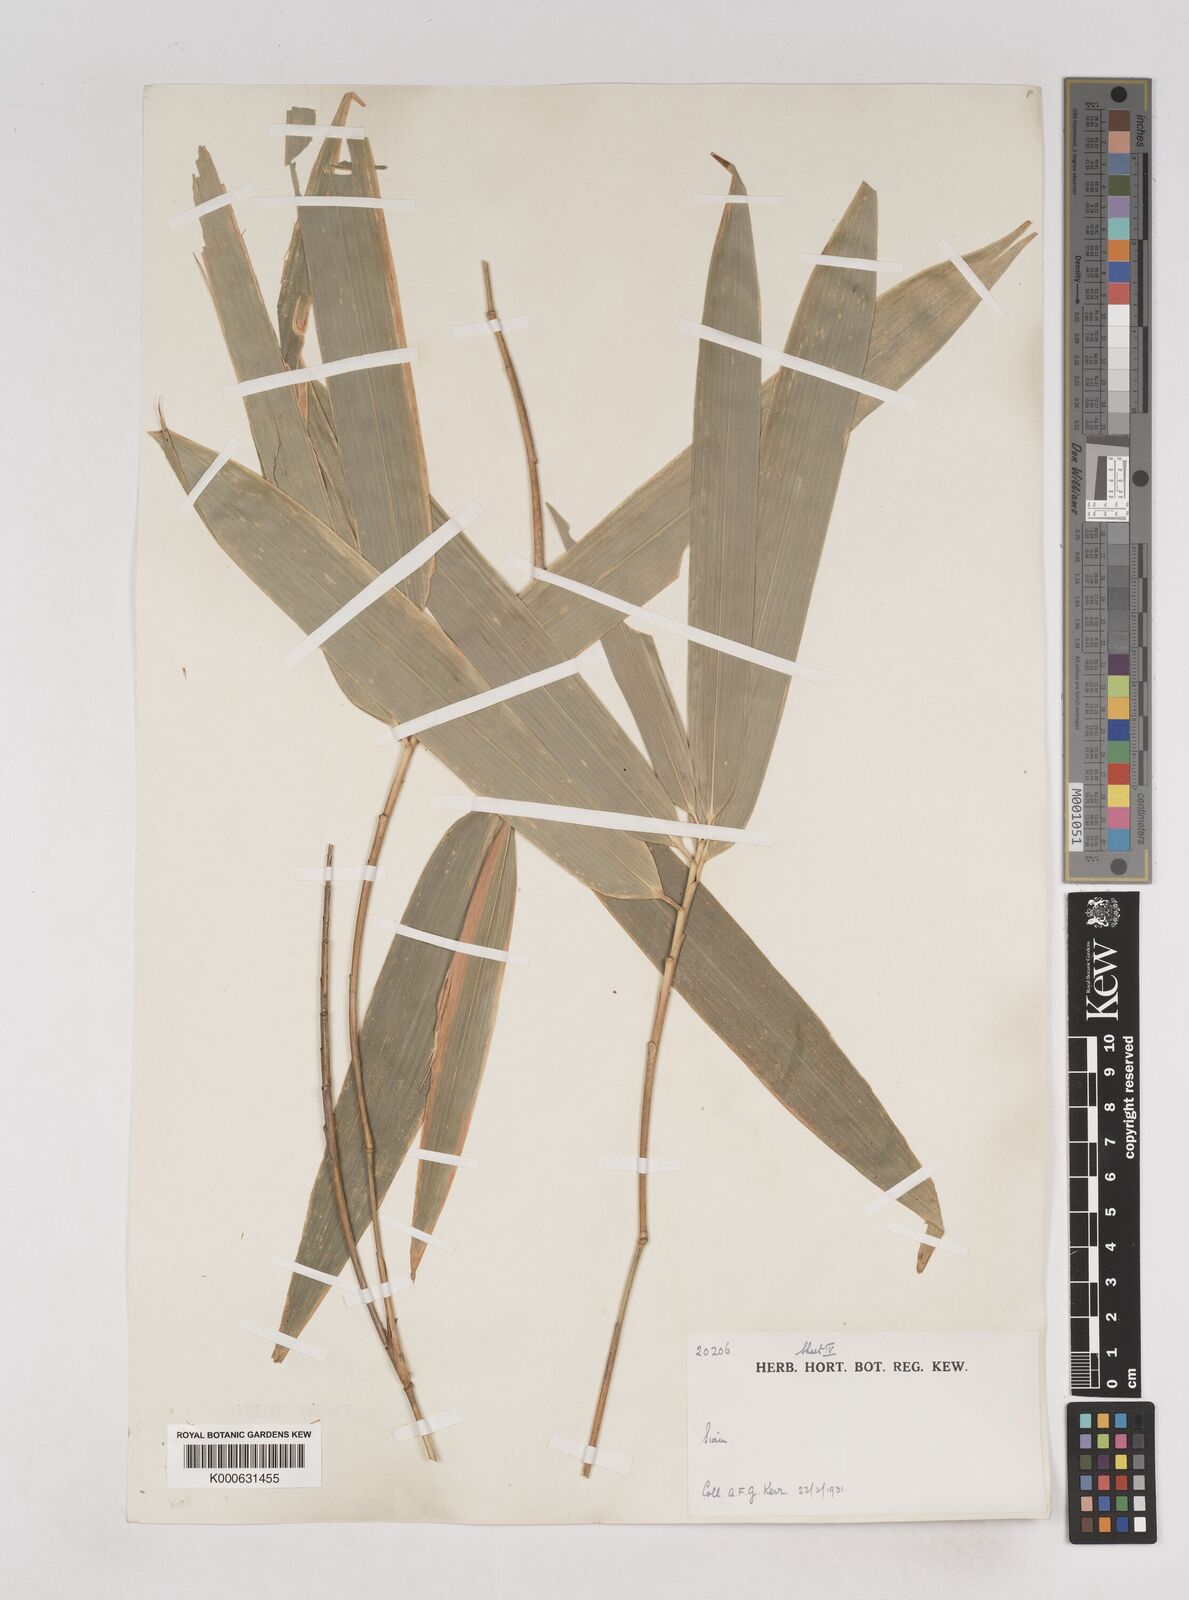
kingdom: Plantae
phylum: Tracheophyta
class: Liliopsida
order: Poales
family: Poaceae
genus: Schizostachyum
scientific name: Schizostachyum
